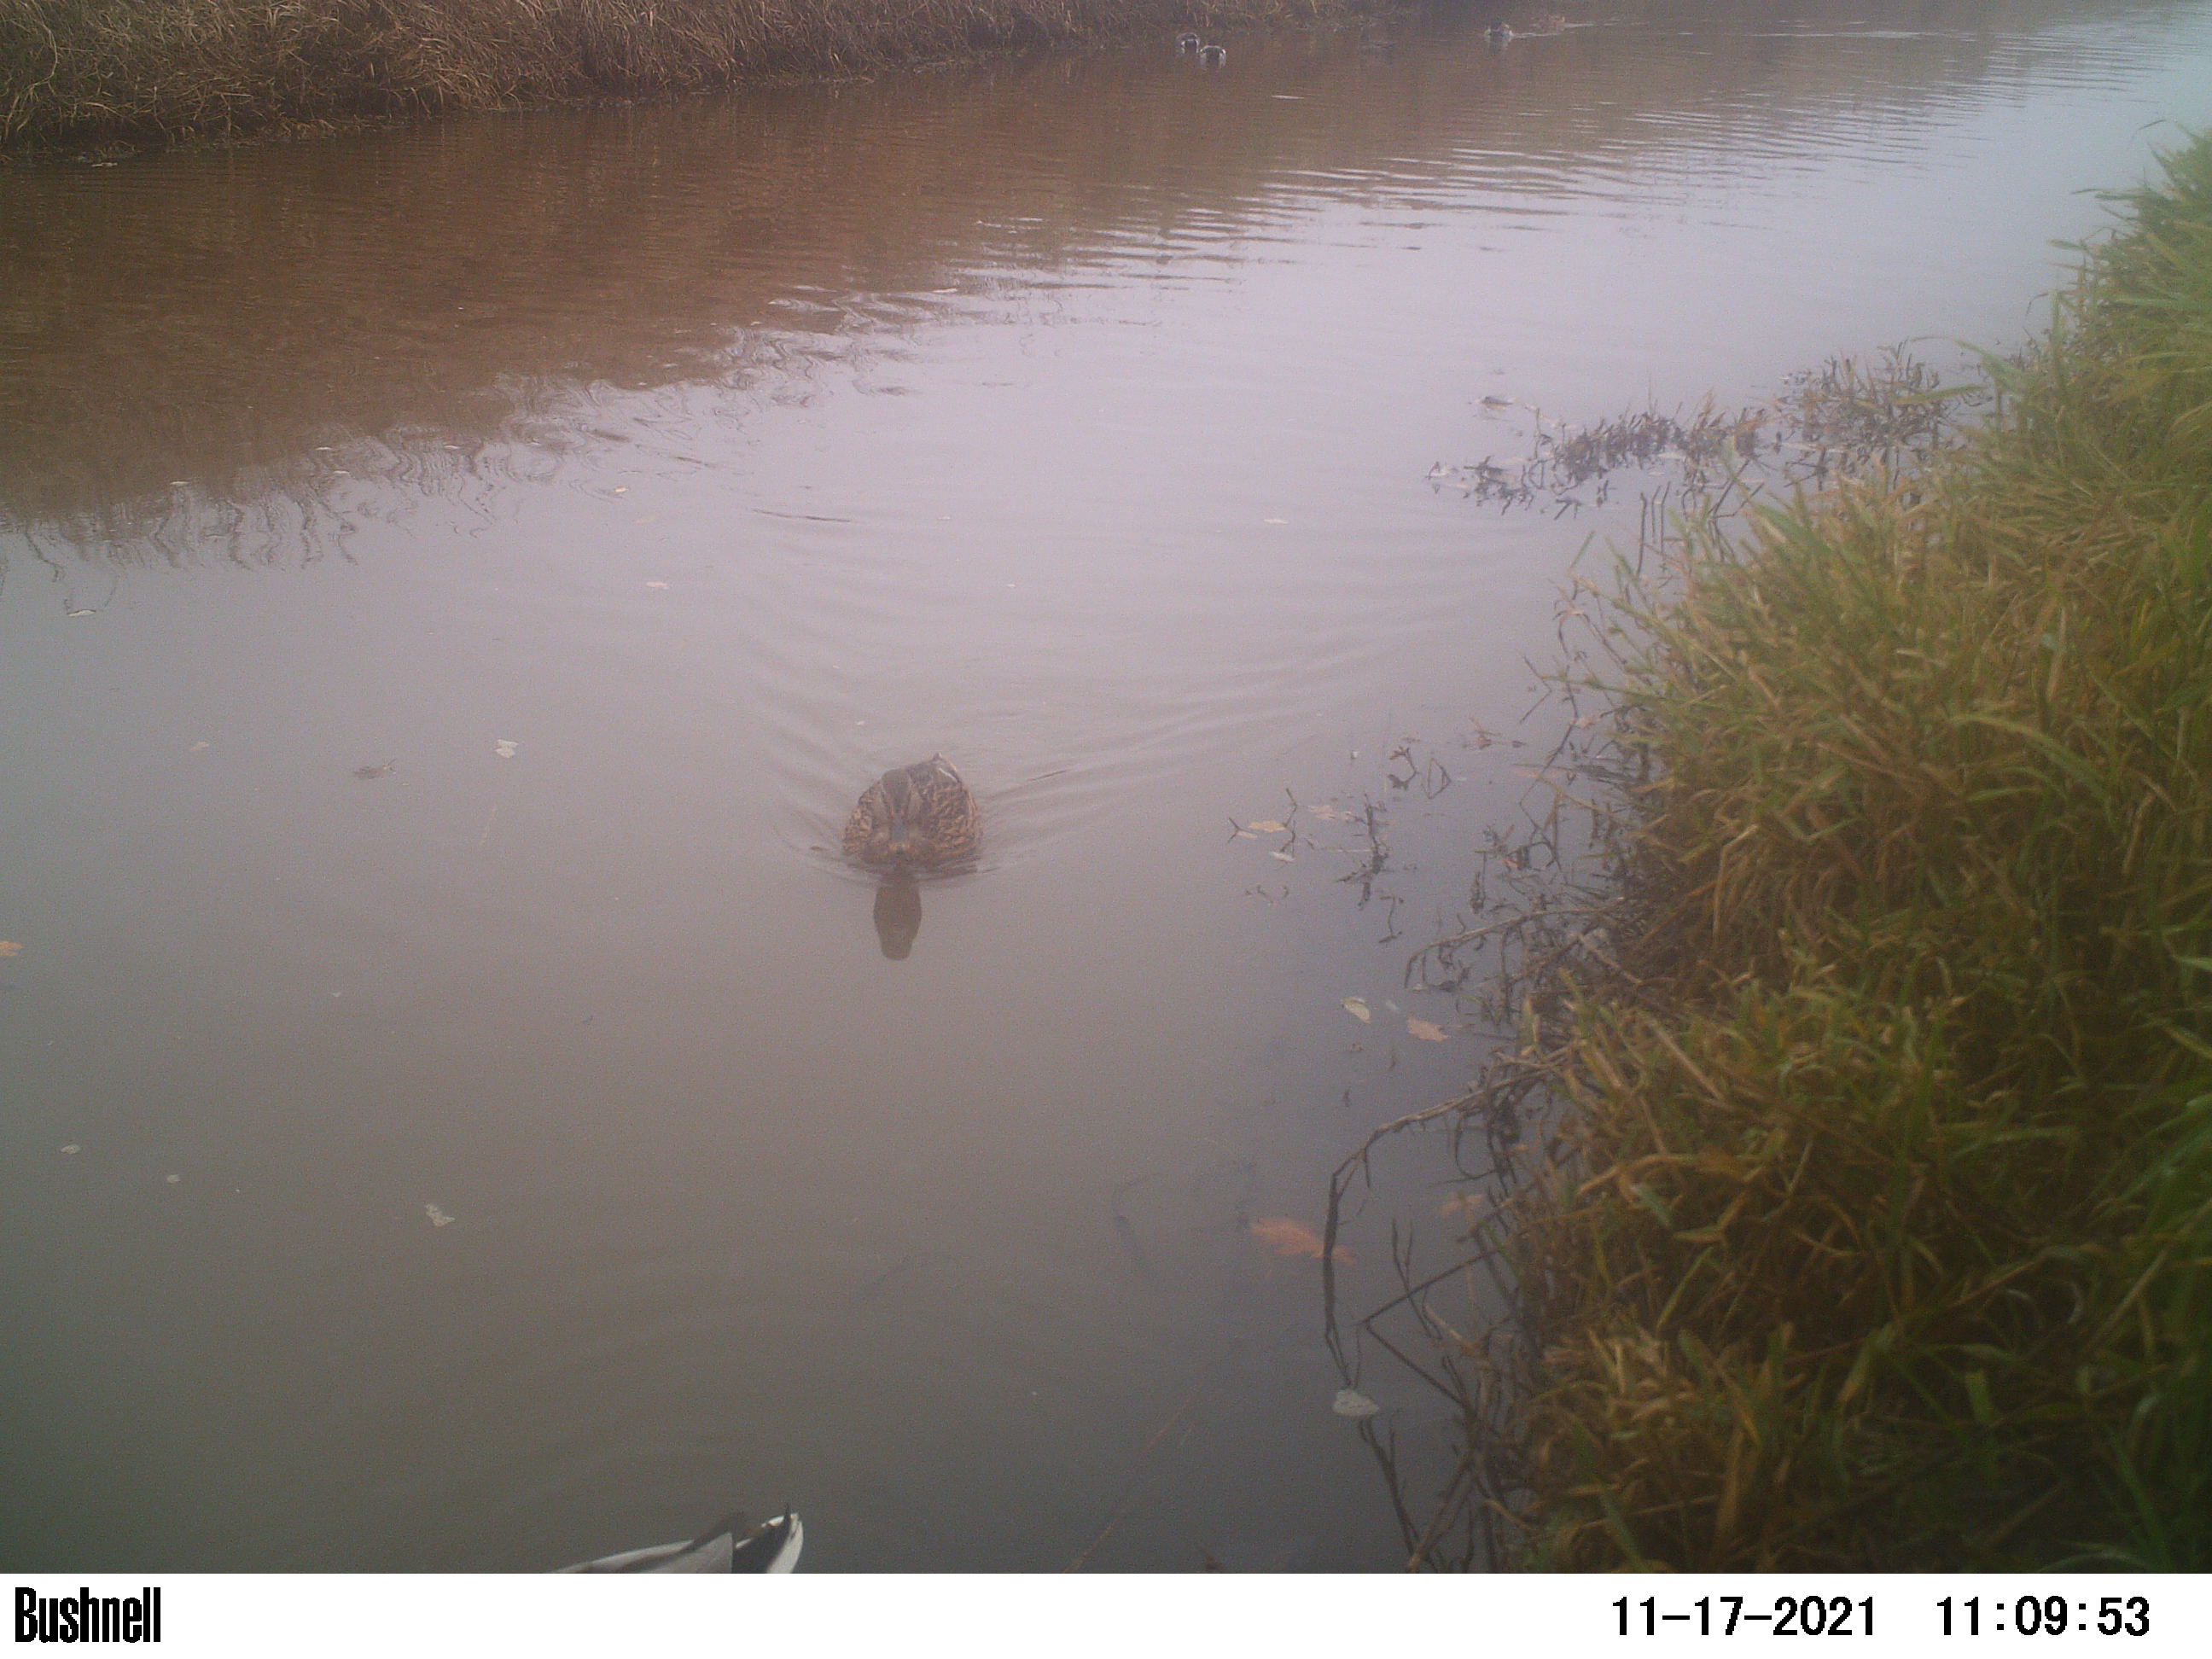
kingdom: Animalia
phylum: Chordata
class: Aves
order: Anseriformes
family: Anatidae
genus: Anas
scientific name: Anas
